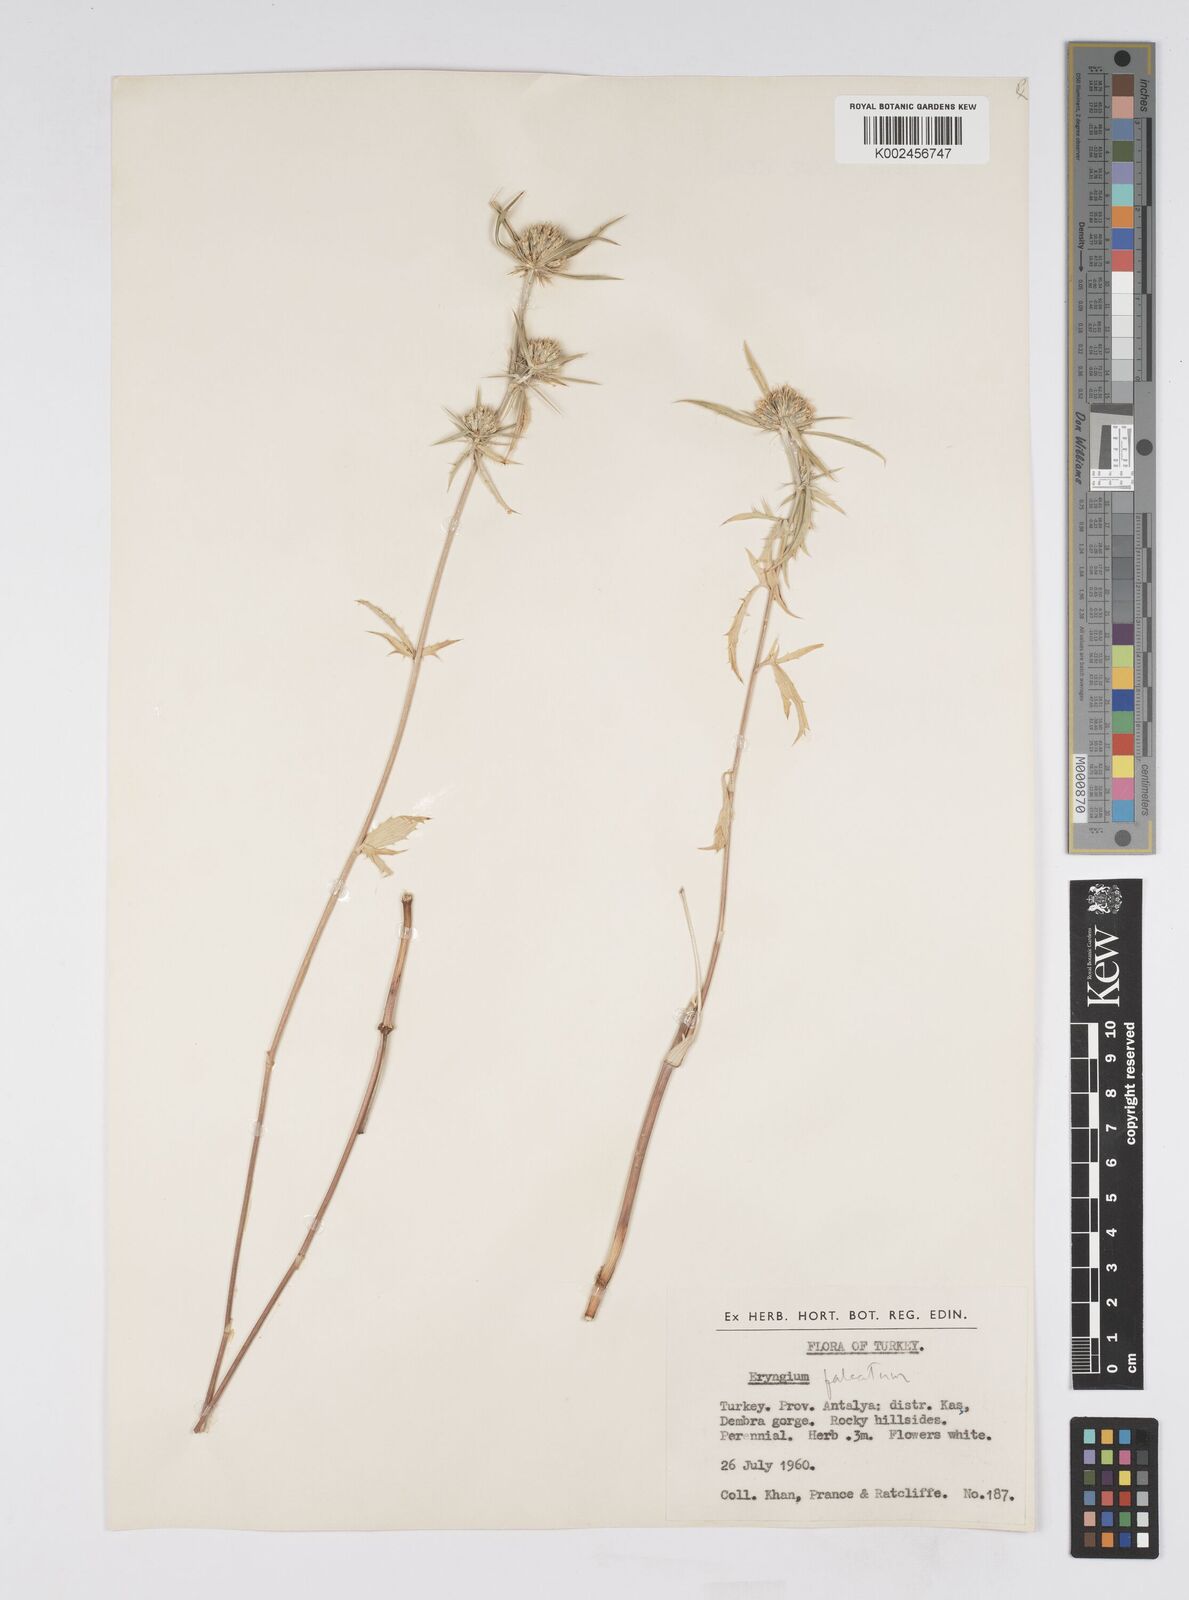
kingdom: Plantae
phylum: Tracheophyta
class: Magnoliopsida
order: Apiales
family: Apiaceae
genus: Eryngium
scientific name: Eryngium falcatum
